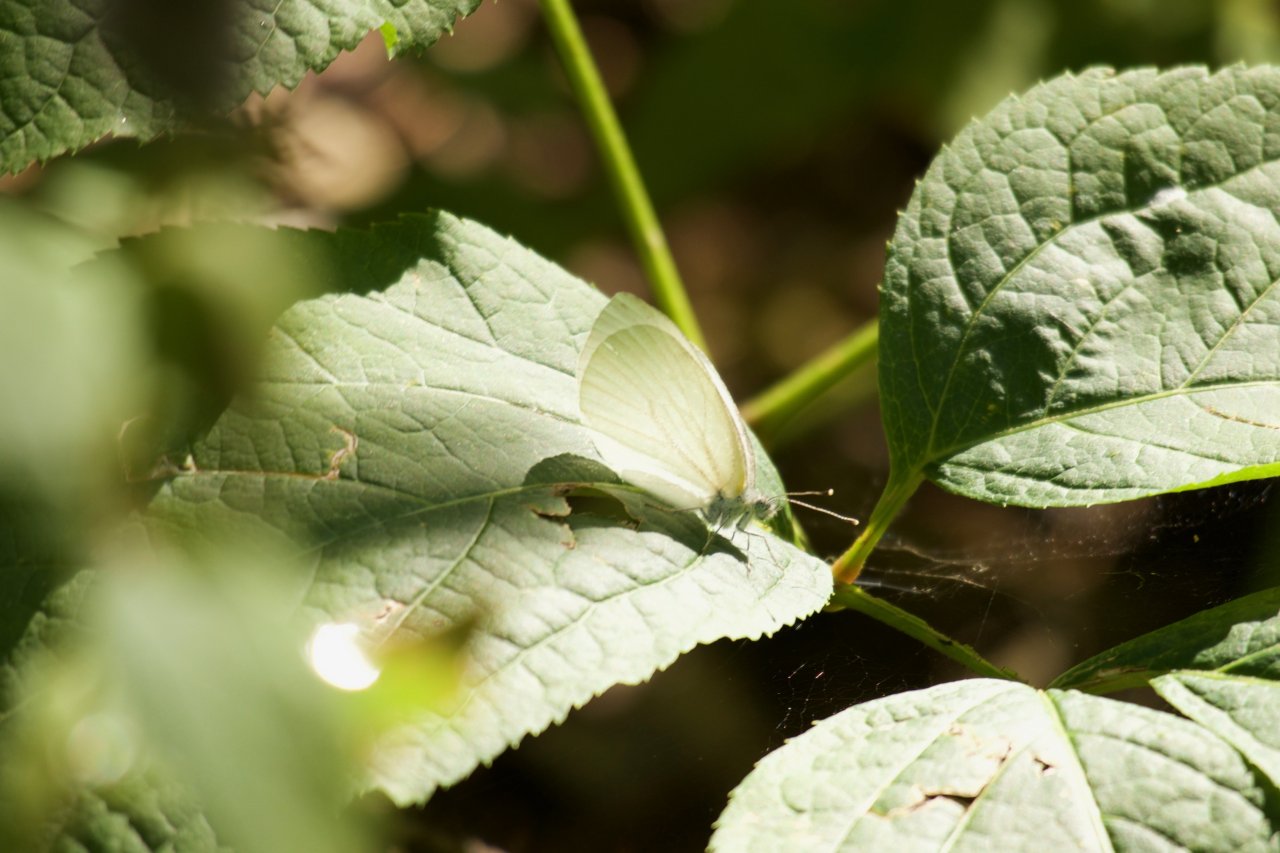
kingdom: Animalia
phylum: Arthropoda
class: Insecta
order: Lepidoptera
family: Pieridae
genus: Pieris
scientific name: Pieris oleracea
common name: Mustard White
